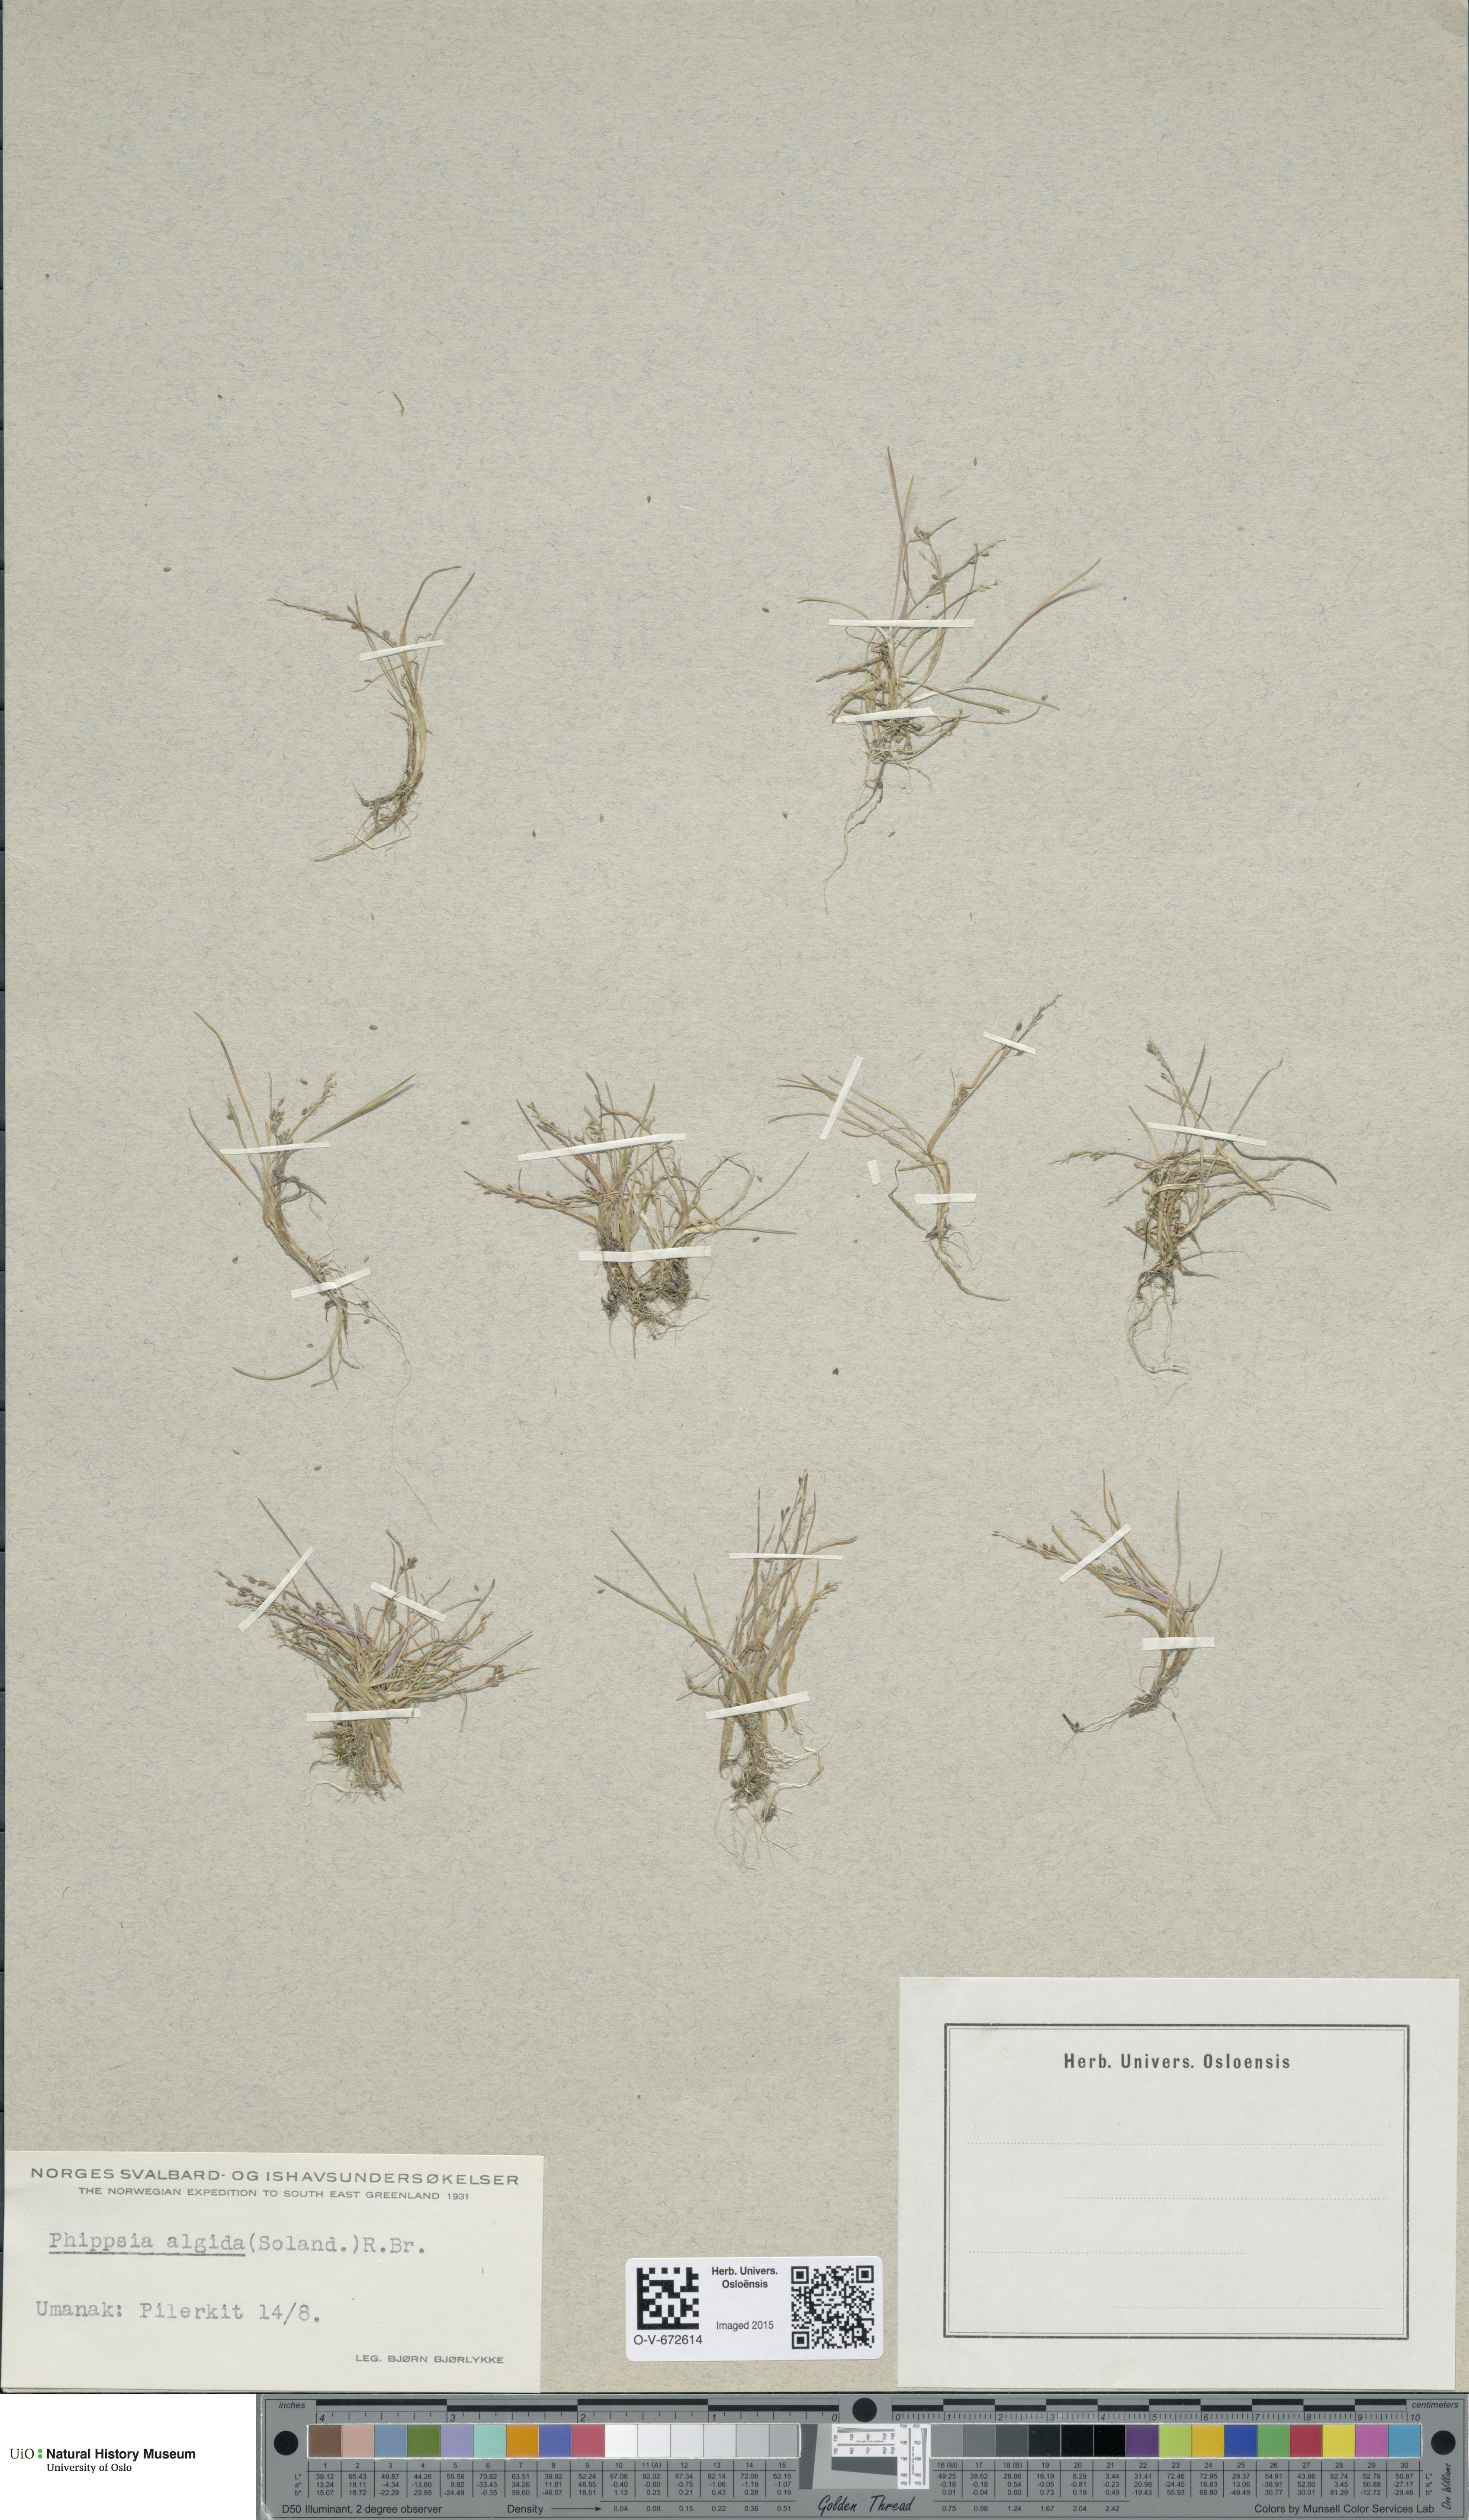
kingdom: Plantae
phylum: Tracheophyta
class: Liliopsida
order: Poales
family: Poaceae
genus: Phippsia
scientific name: Phippsia algida
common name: Ice grass
